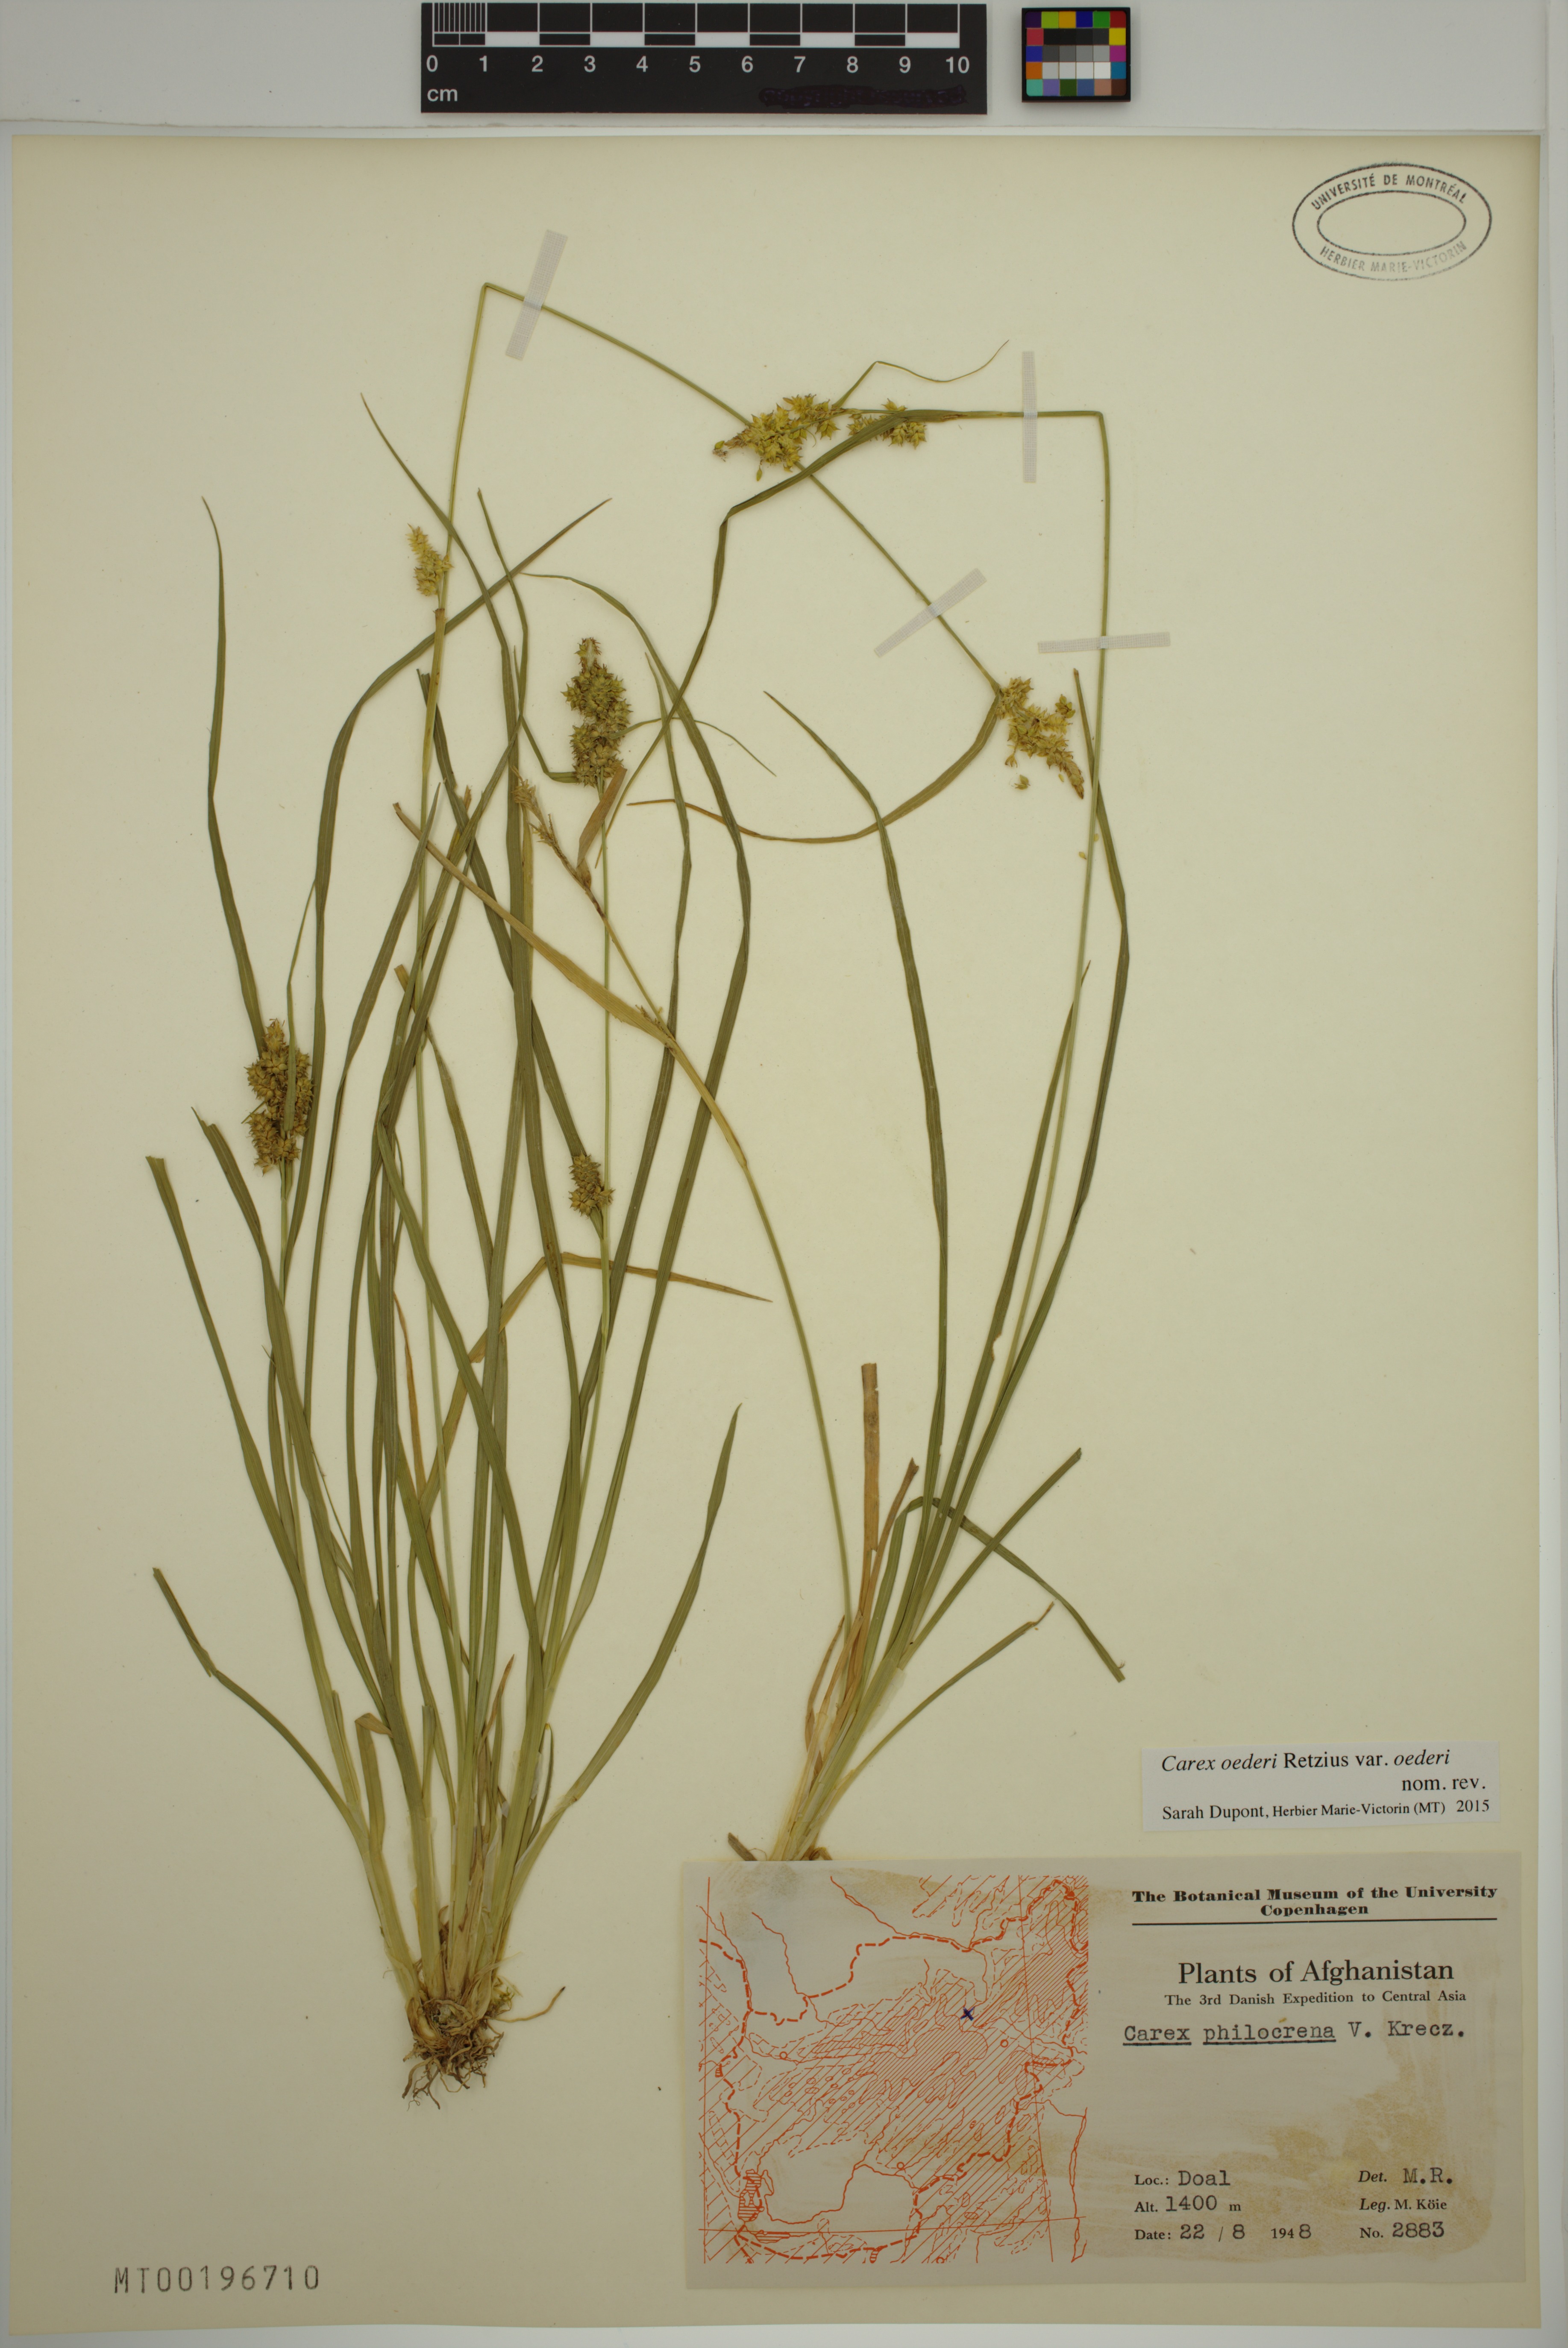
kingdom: Plantae
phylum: Tracheophyta
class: Liliopsida
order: Poales
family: Cyperaceae
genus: Carex
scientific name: Carex oederi
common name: Common & small-fruited yellow-sedge
